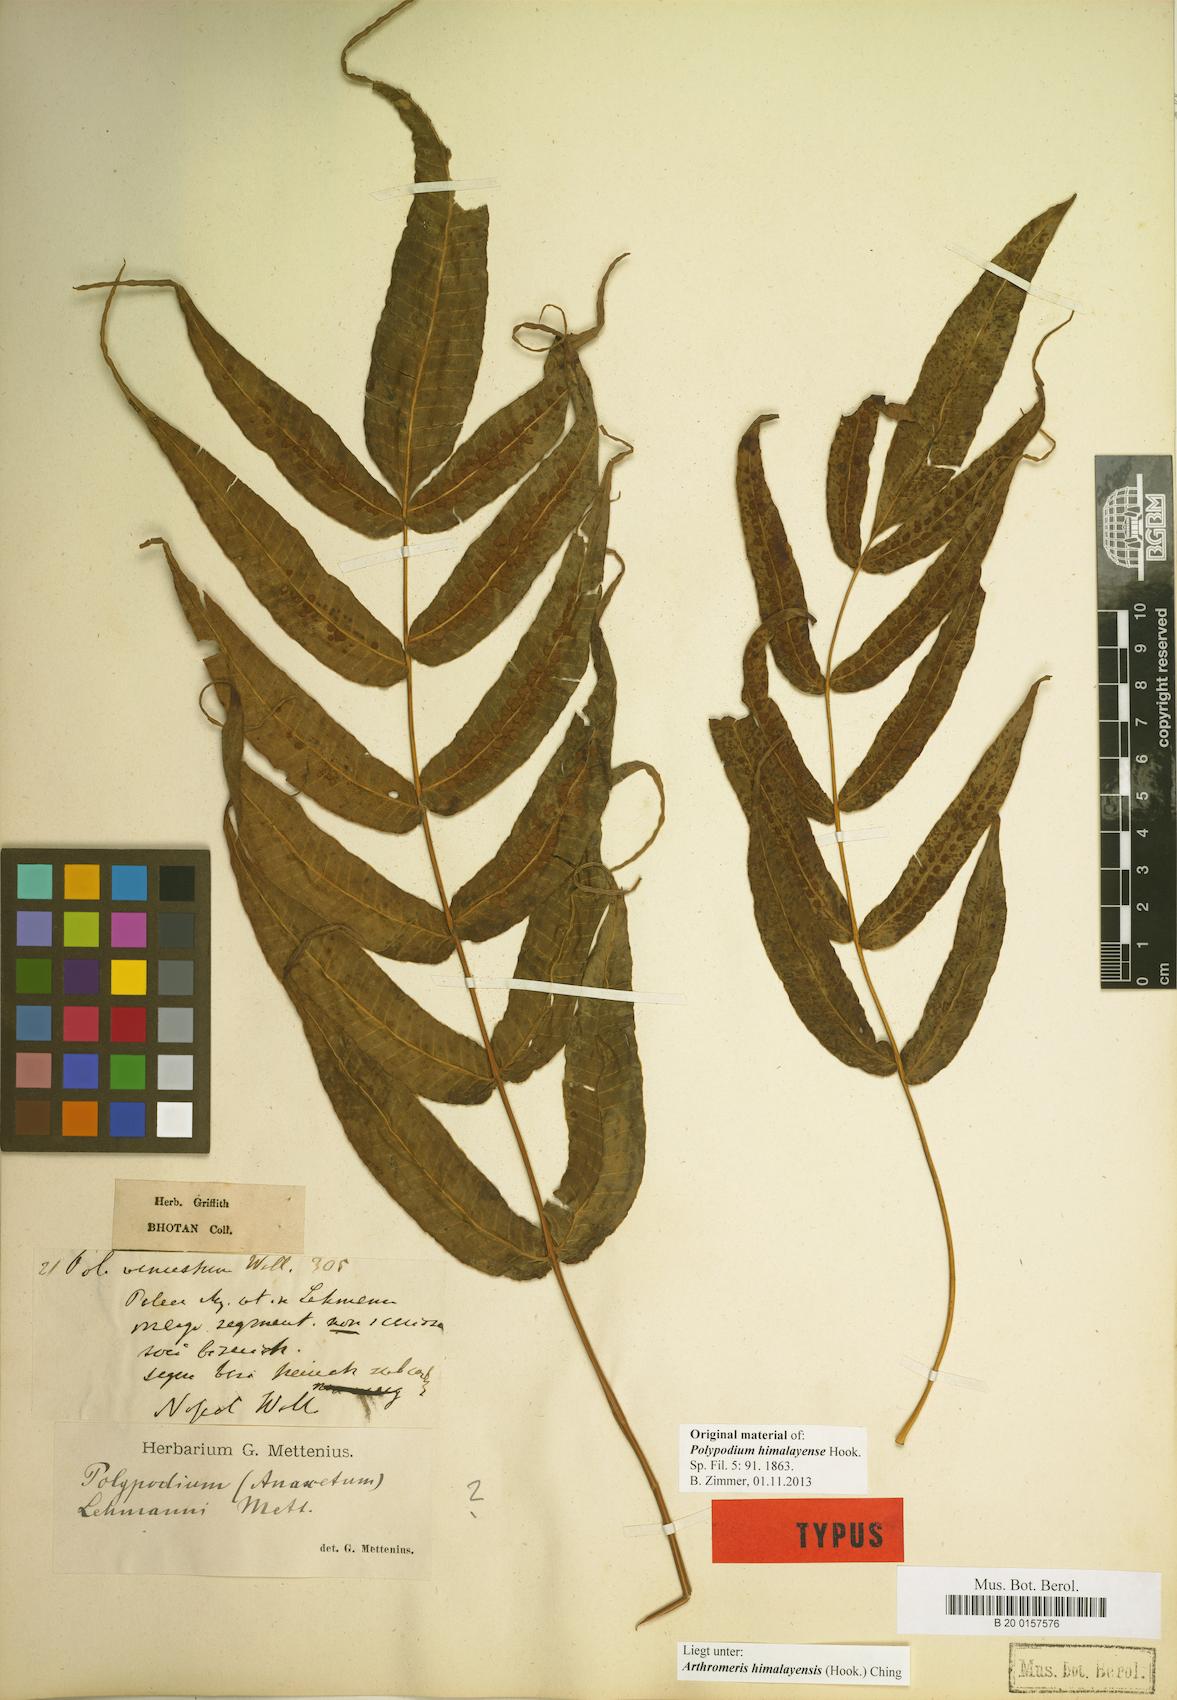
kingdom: Plantae
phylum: Tracheophyta
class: Polypodiopsida
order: Polypodiales
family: Polypodiaceae
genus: Selliguea
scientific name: Selliguea tomentosa
